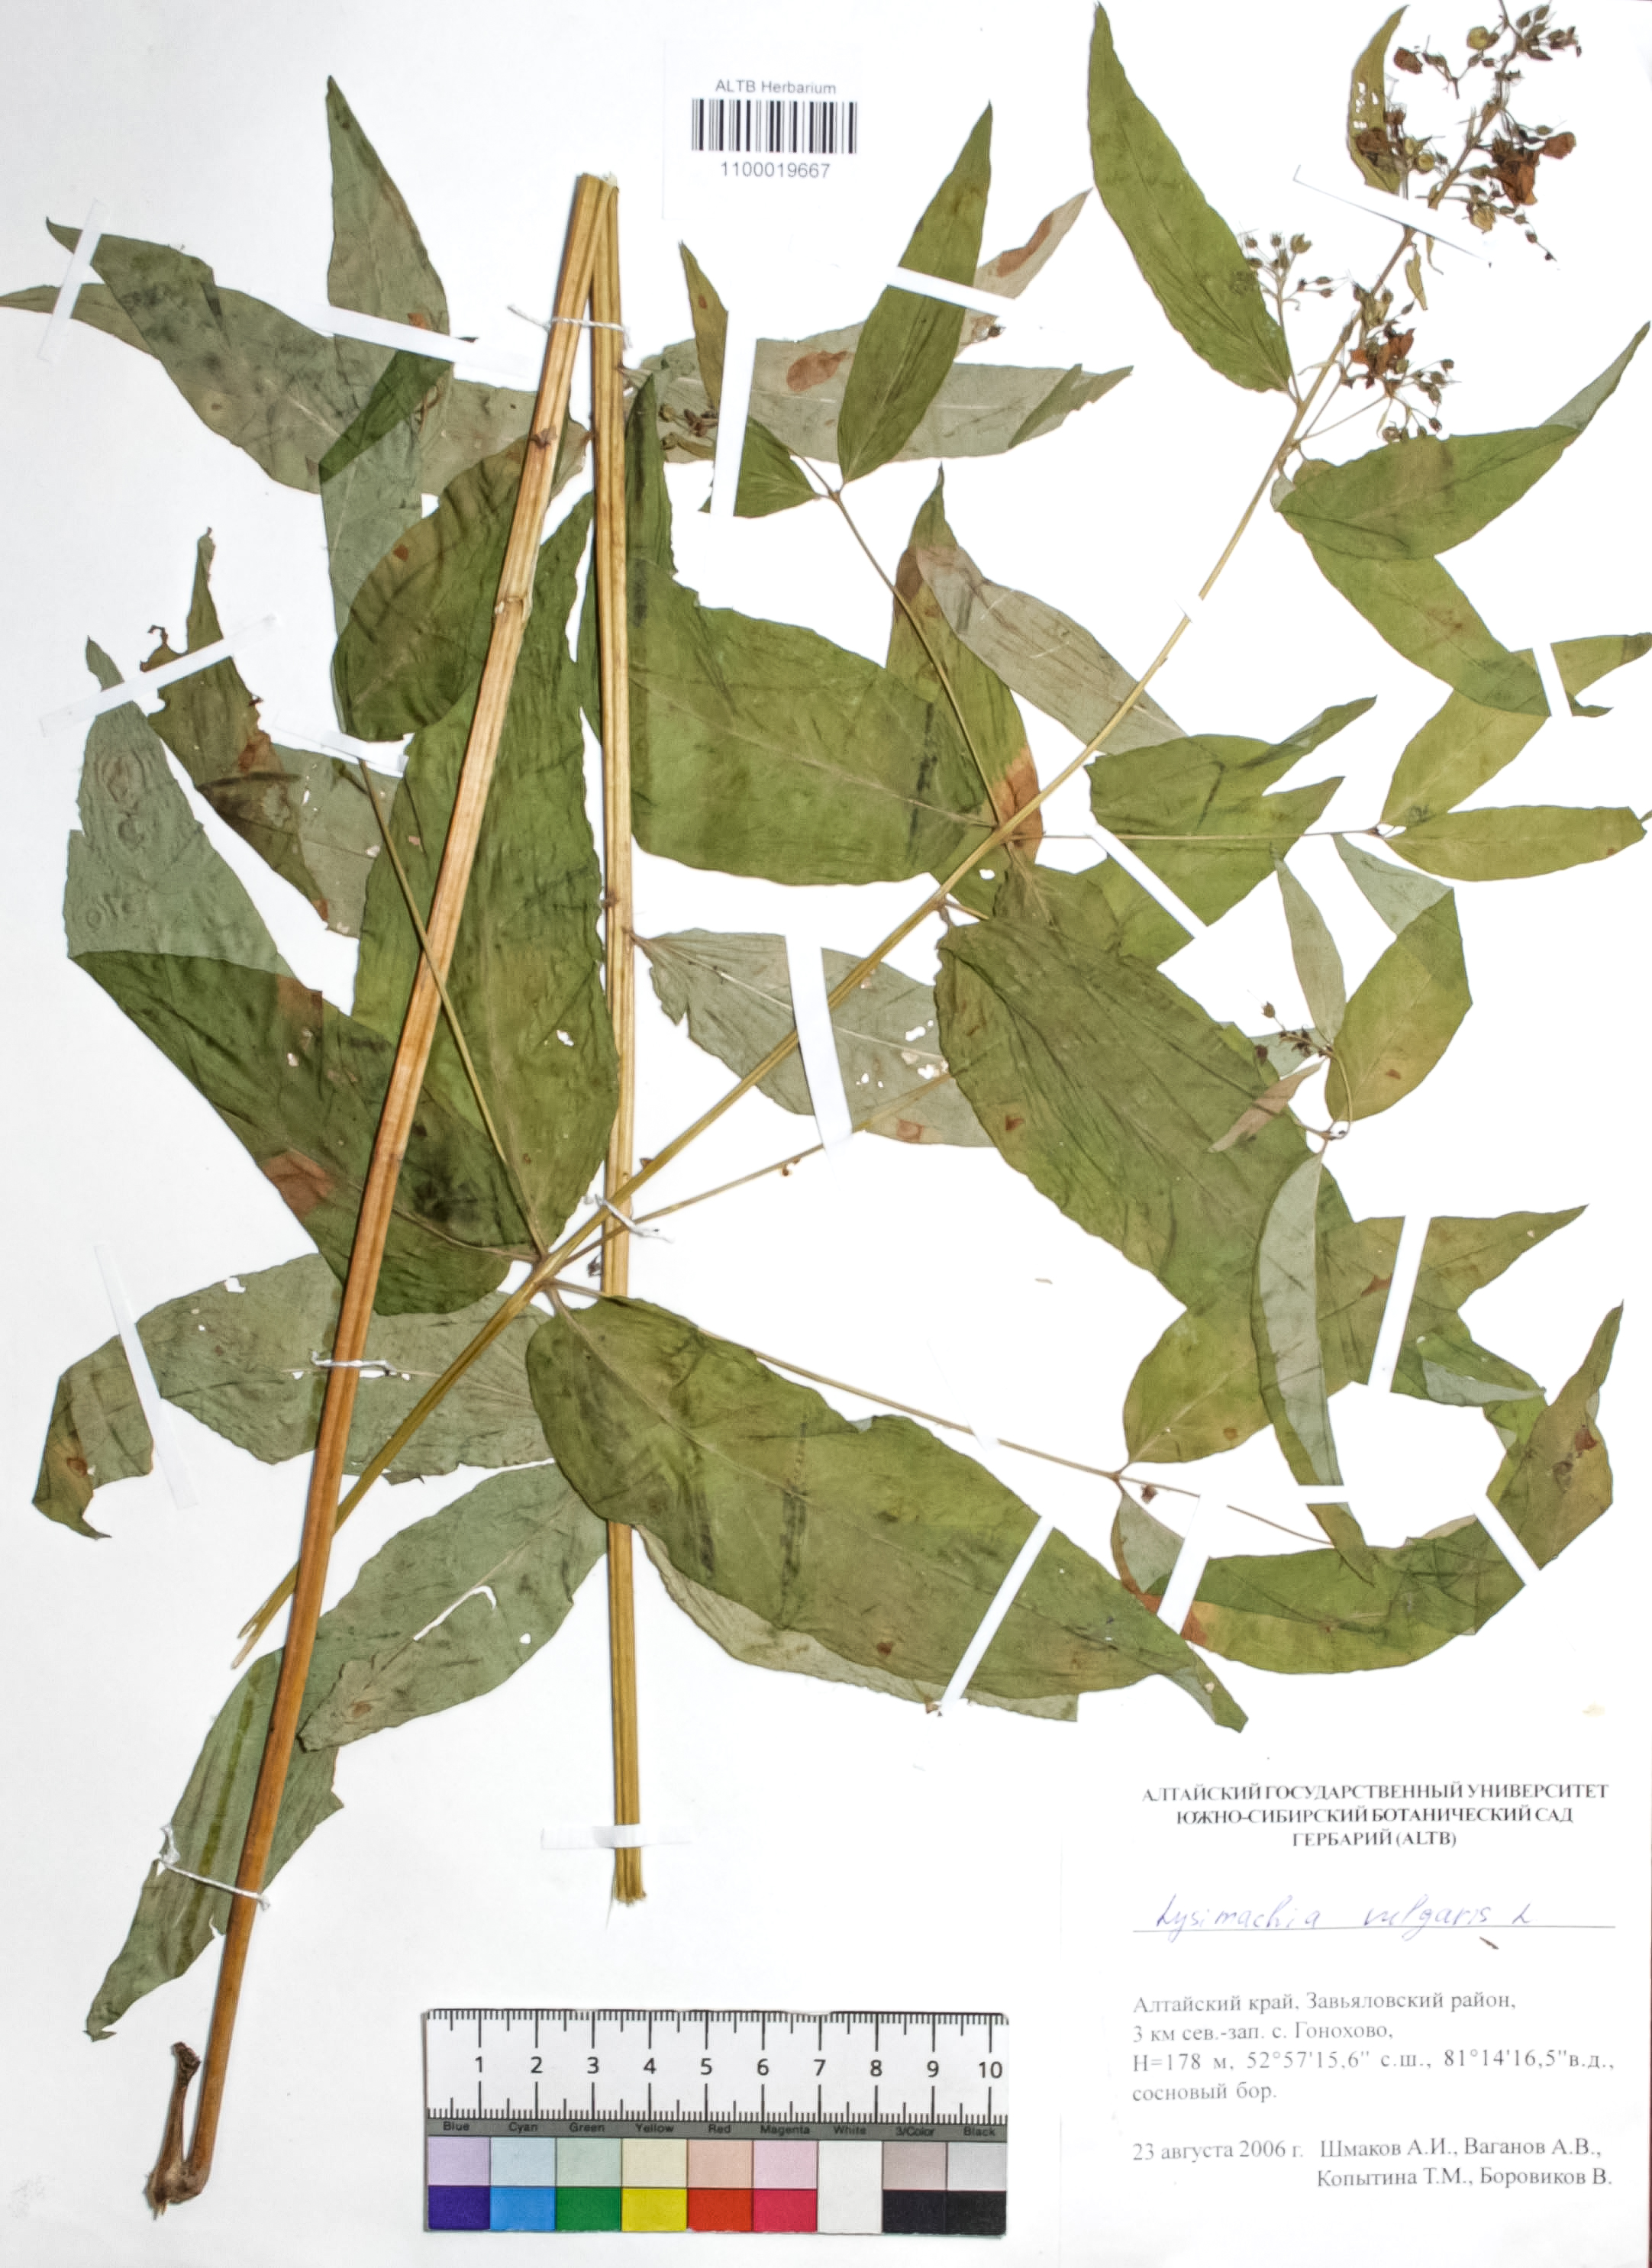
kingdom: Plantae
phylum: Tracheophyta
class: Magnoliopsida
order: Ericales
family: Primulaceae
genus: Lysimachia
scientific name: Lysimachia vulgaris
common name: Yellow loosestrife
